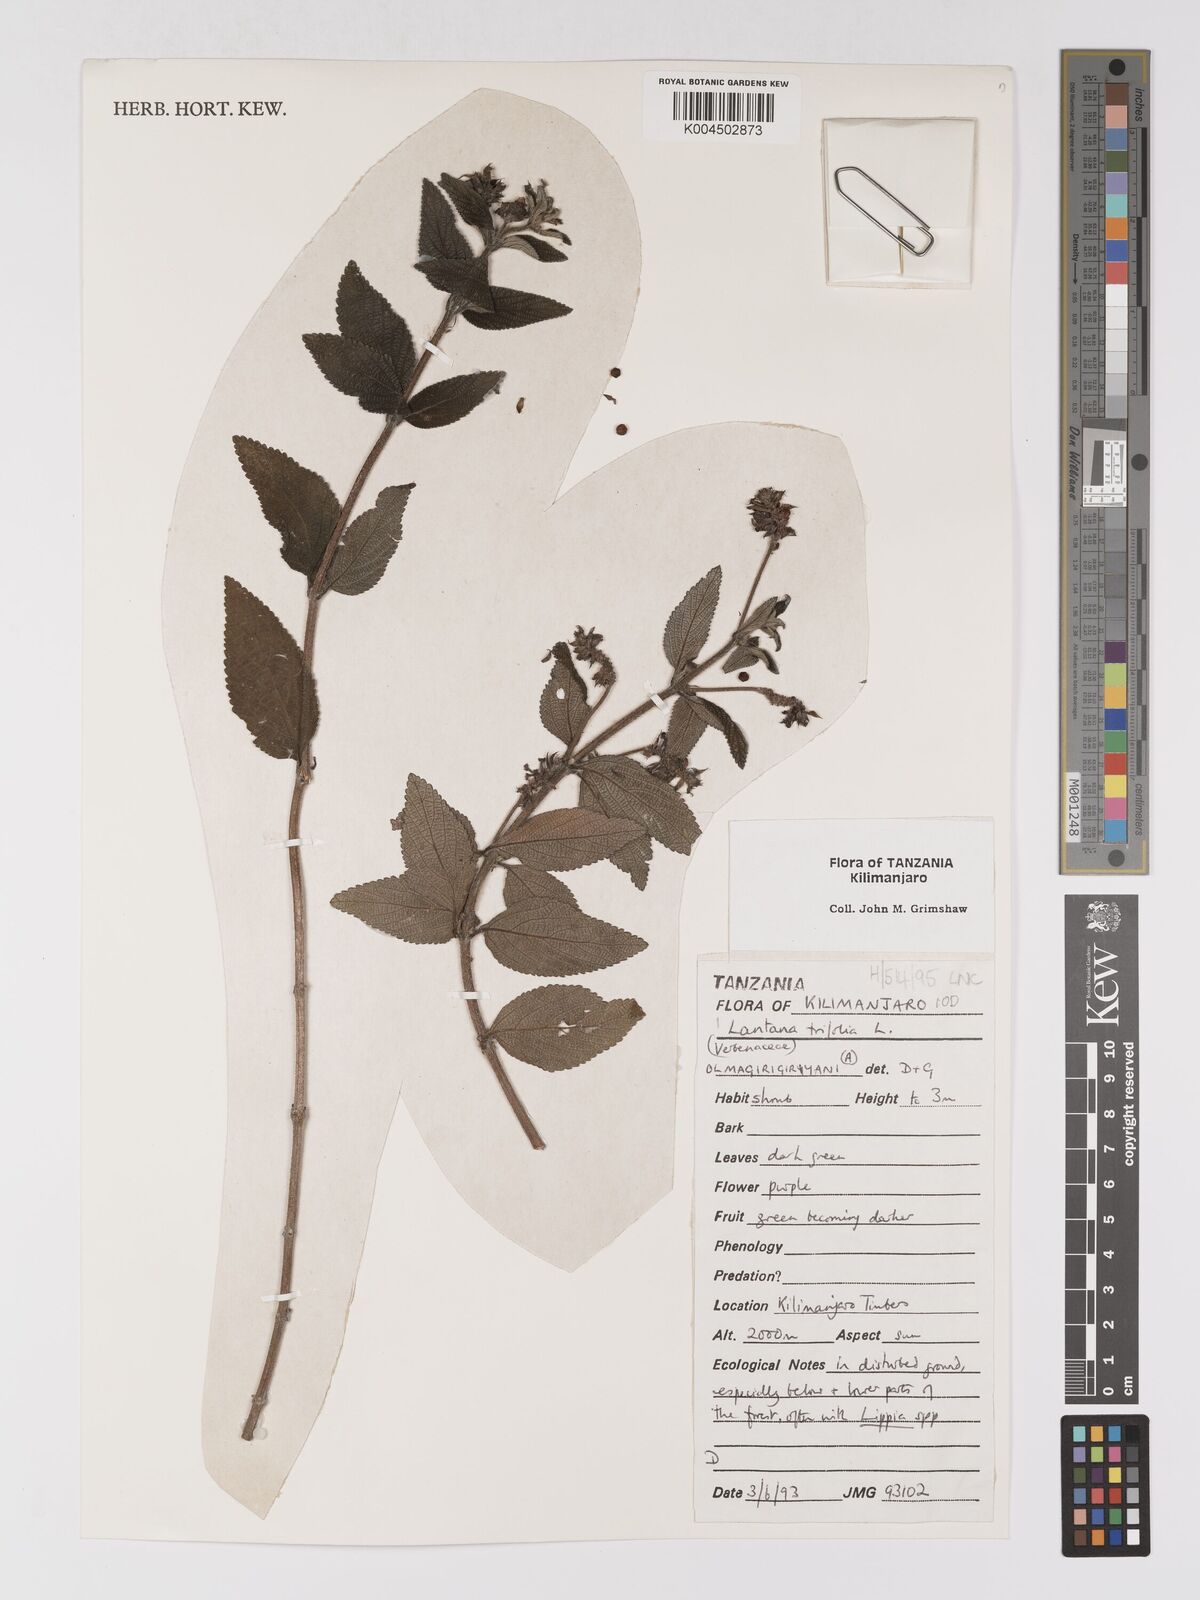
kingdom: Plantae
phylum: Tracheophyta
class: Magnoliopsida
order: Lamiales
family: Verbenaceae
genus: Lantana
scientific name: Lantana trifolia
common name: Sweet-sage
